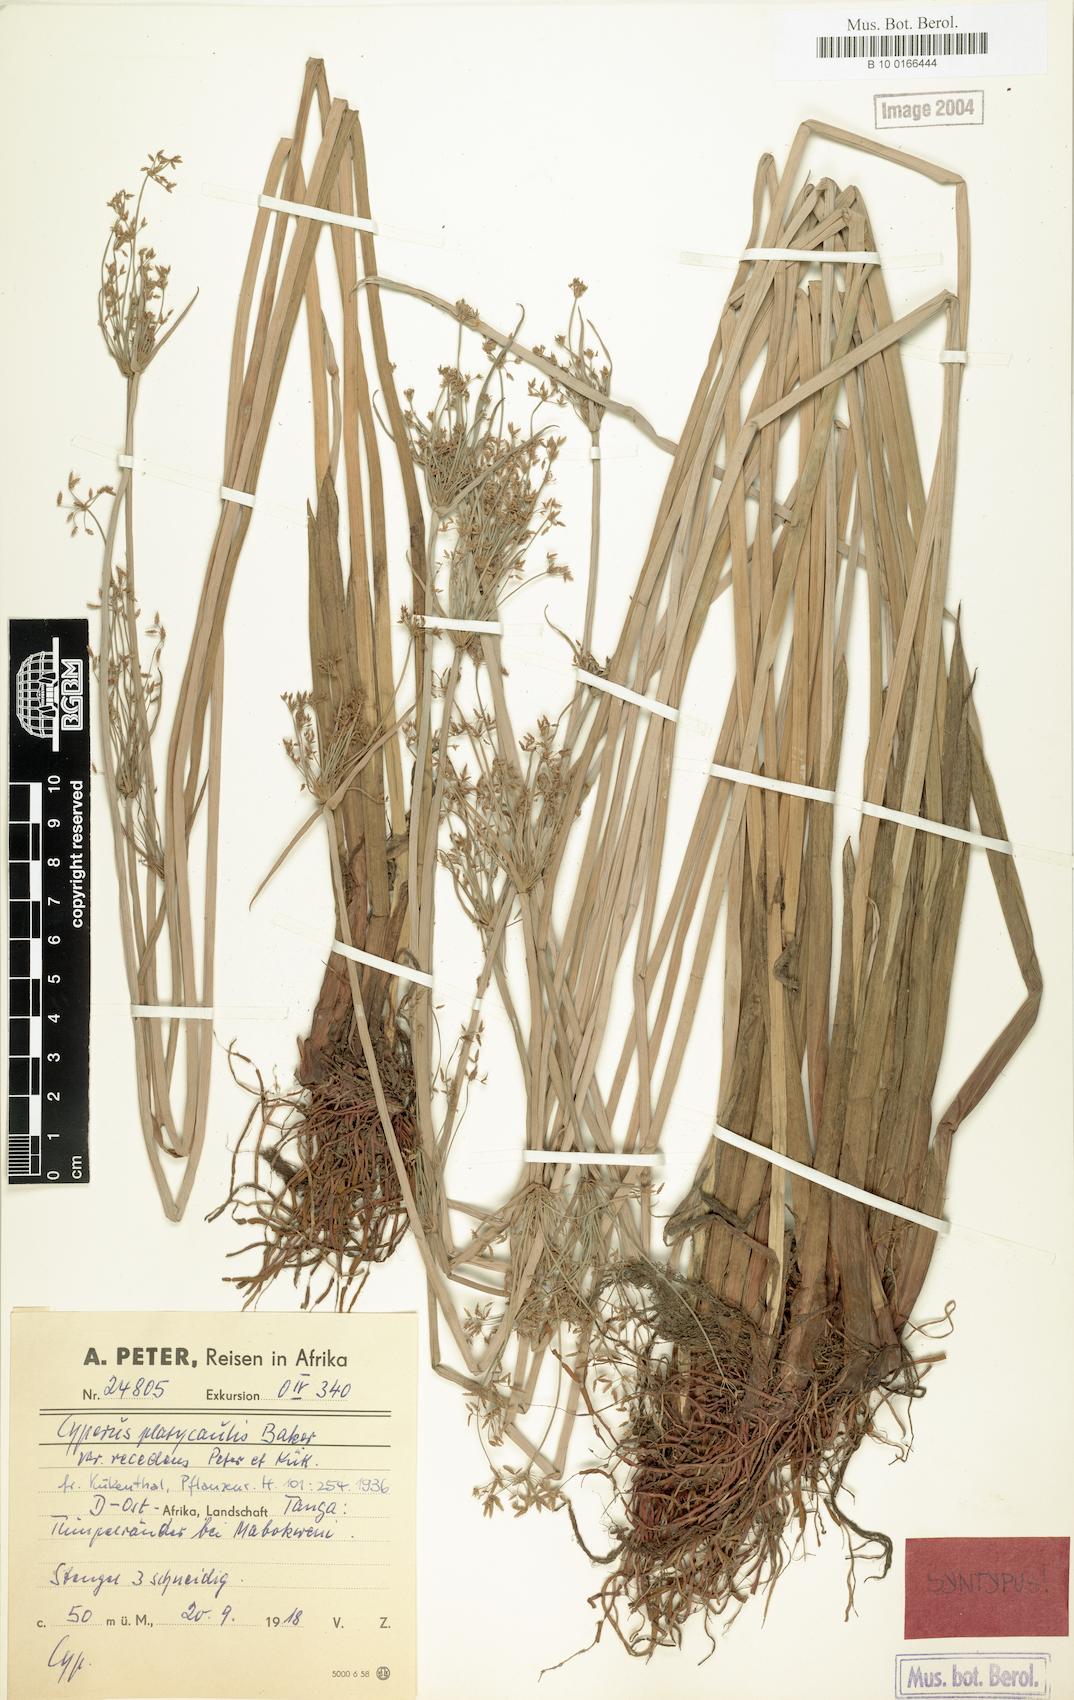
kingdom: Plantae
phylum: Tracheophyta
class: Liliopsida
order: Poales
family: Cyperaceae
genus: Cyperus
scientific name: Cyperus denudatus
